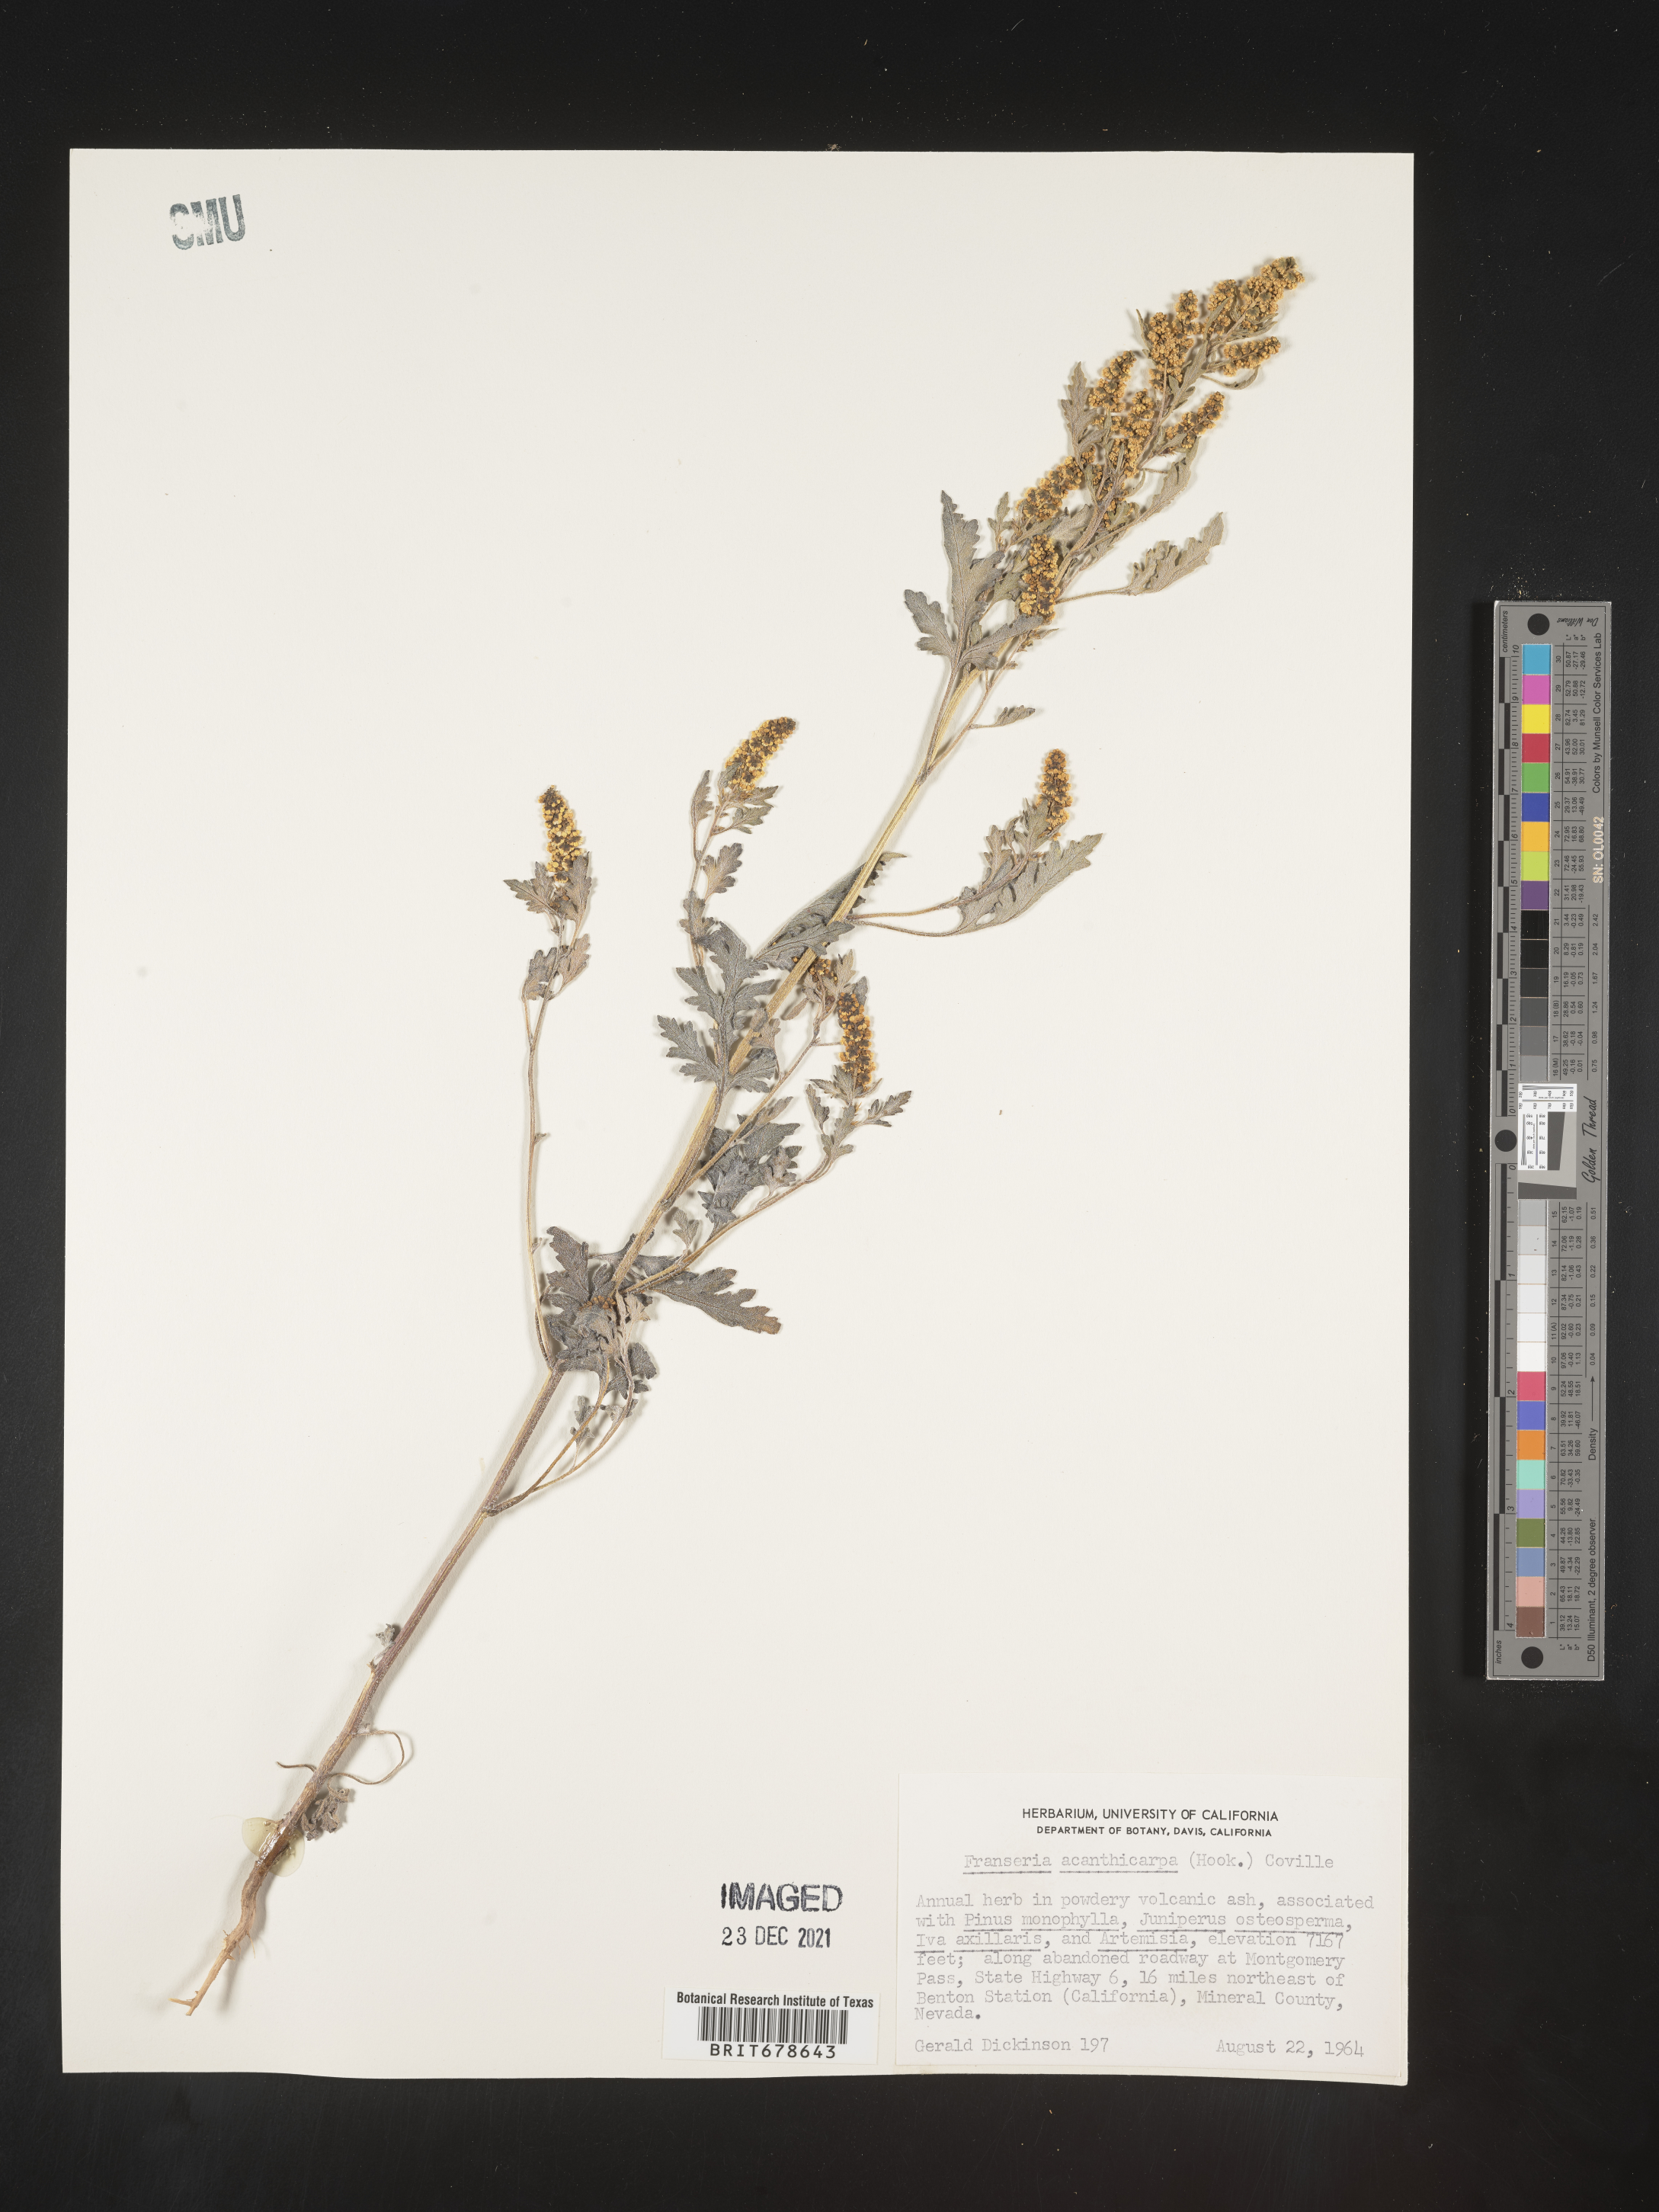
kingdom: Plantae
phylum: Tracheophyta
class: Magnoliopsida
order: Asterales
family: Asteraceae
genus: Ambrosia
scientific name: Ambrosia acanthicarpa
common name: Hooker's bur ragweed
